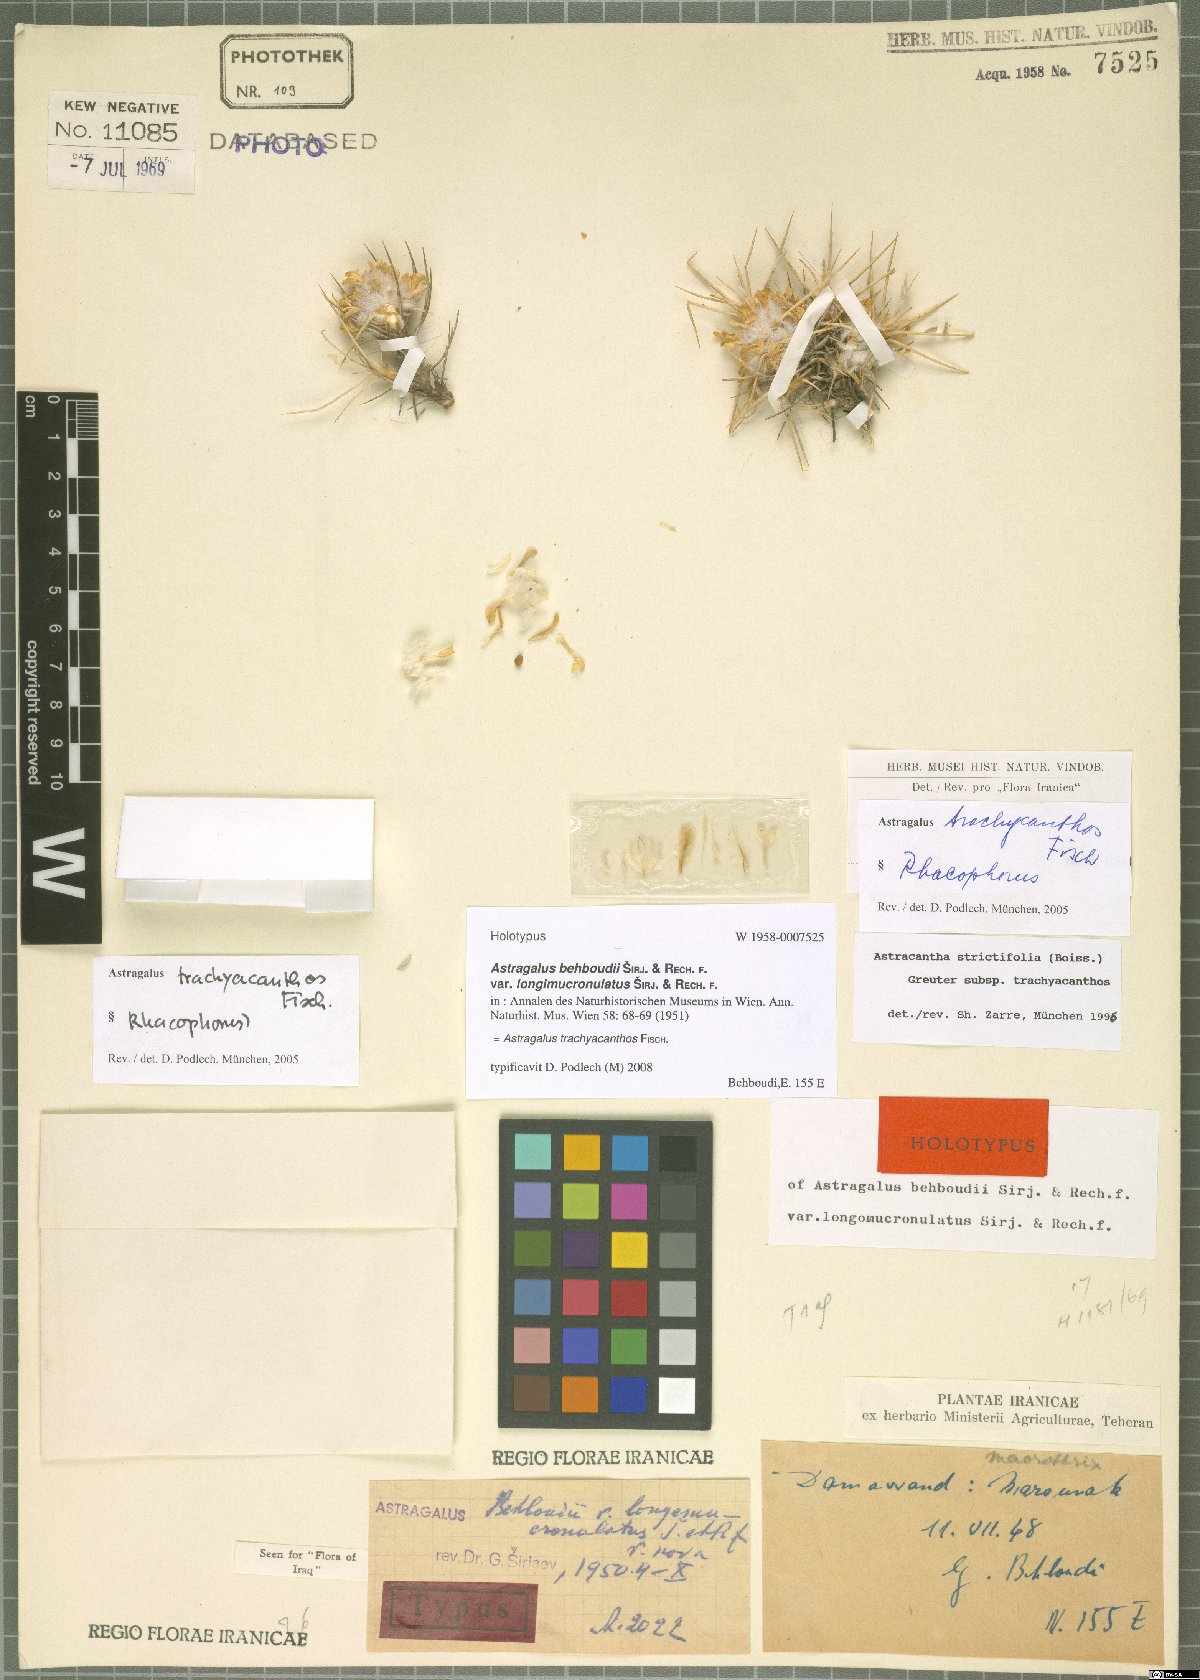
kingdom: Plantae
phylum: Tracheophyta
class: Magnoliopsida
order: Fabales
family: Fabaceae
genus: Astragalus
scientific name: Astragalus trachyacanthos
